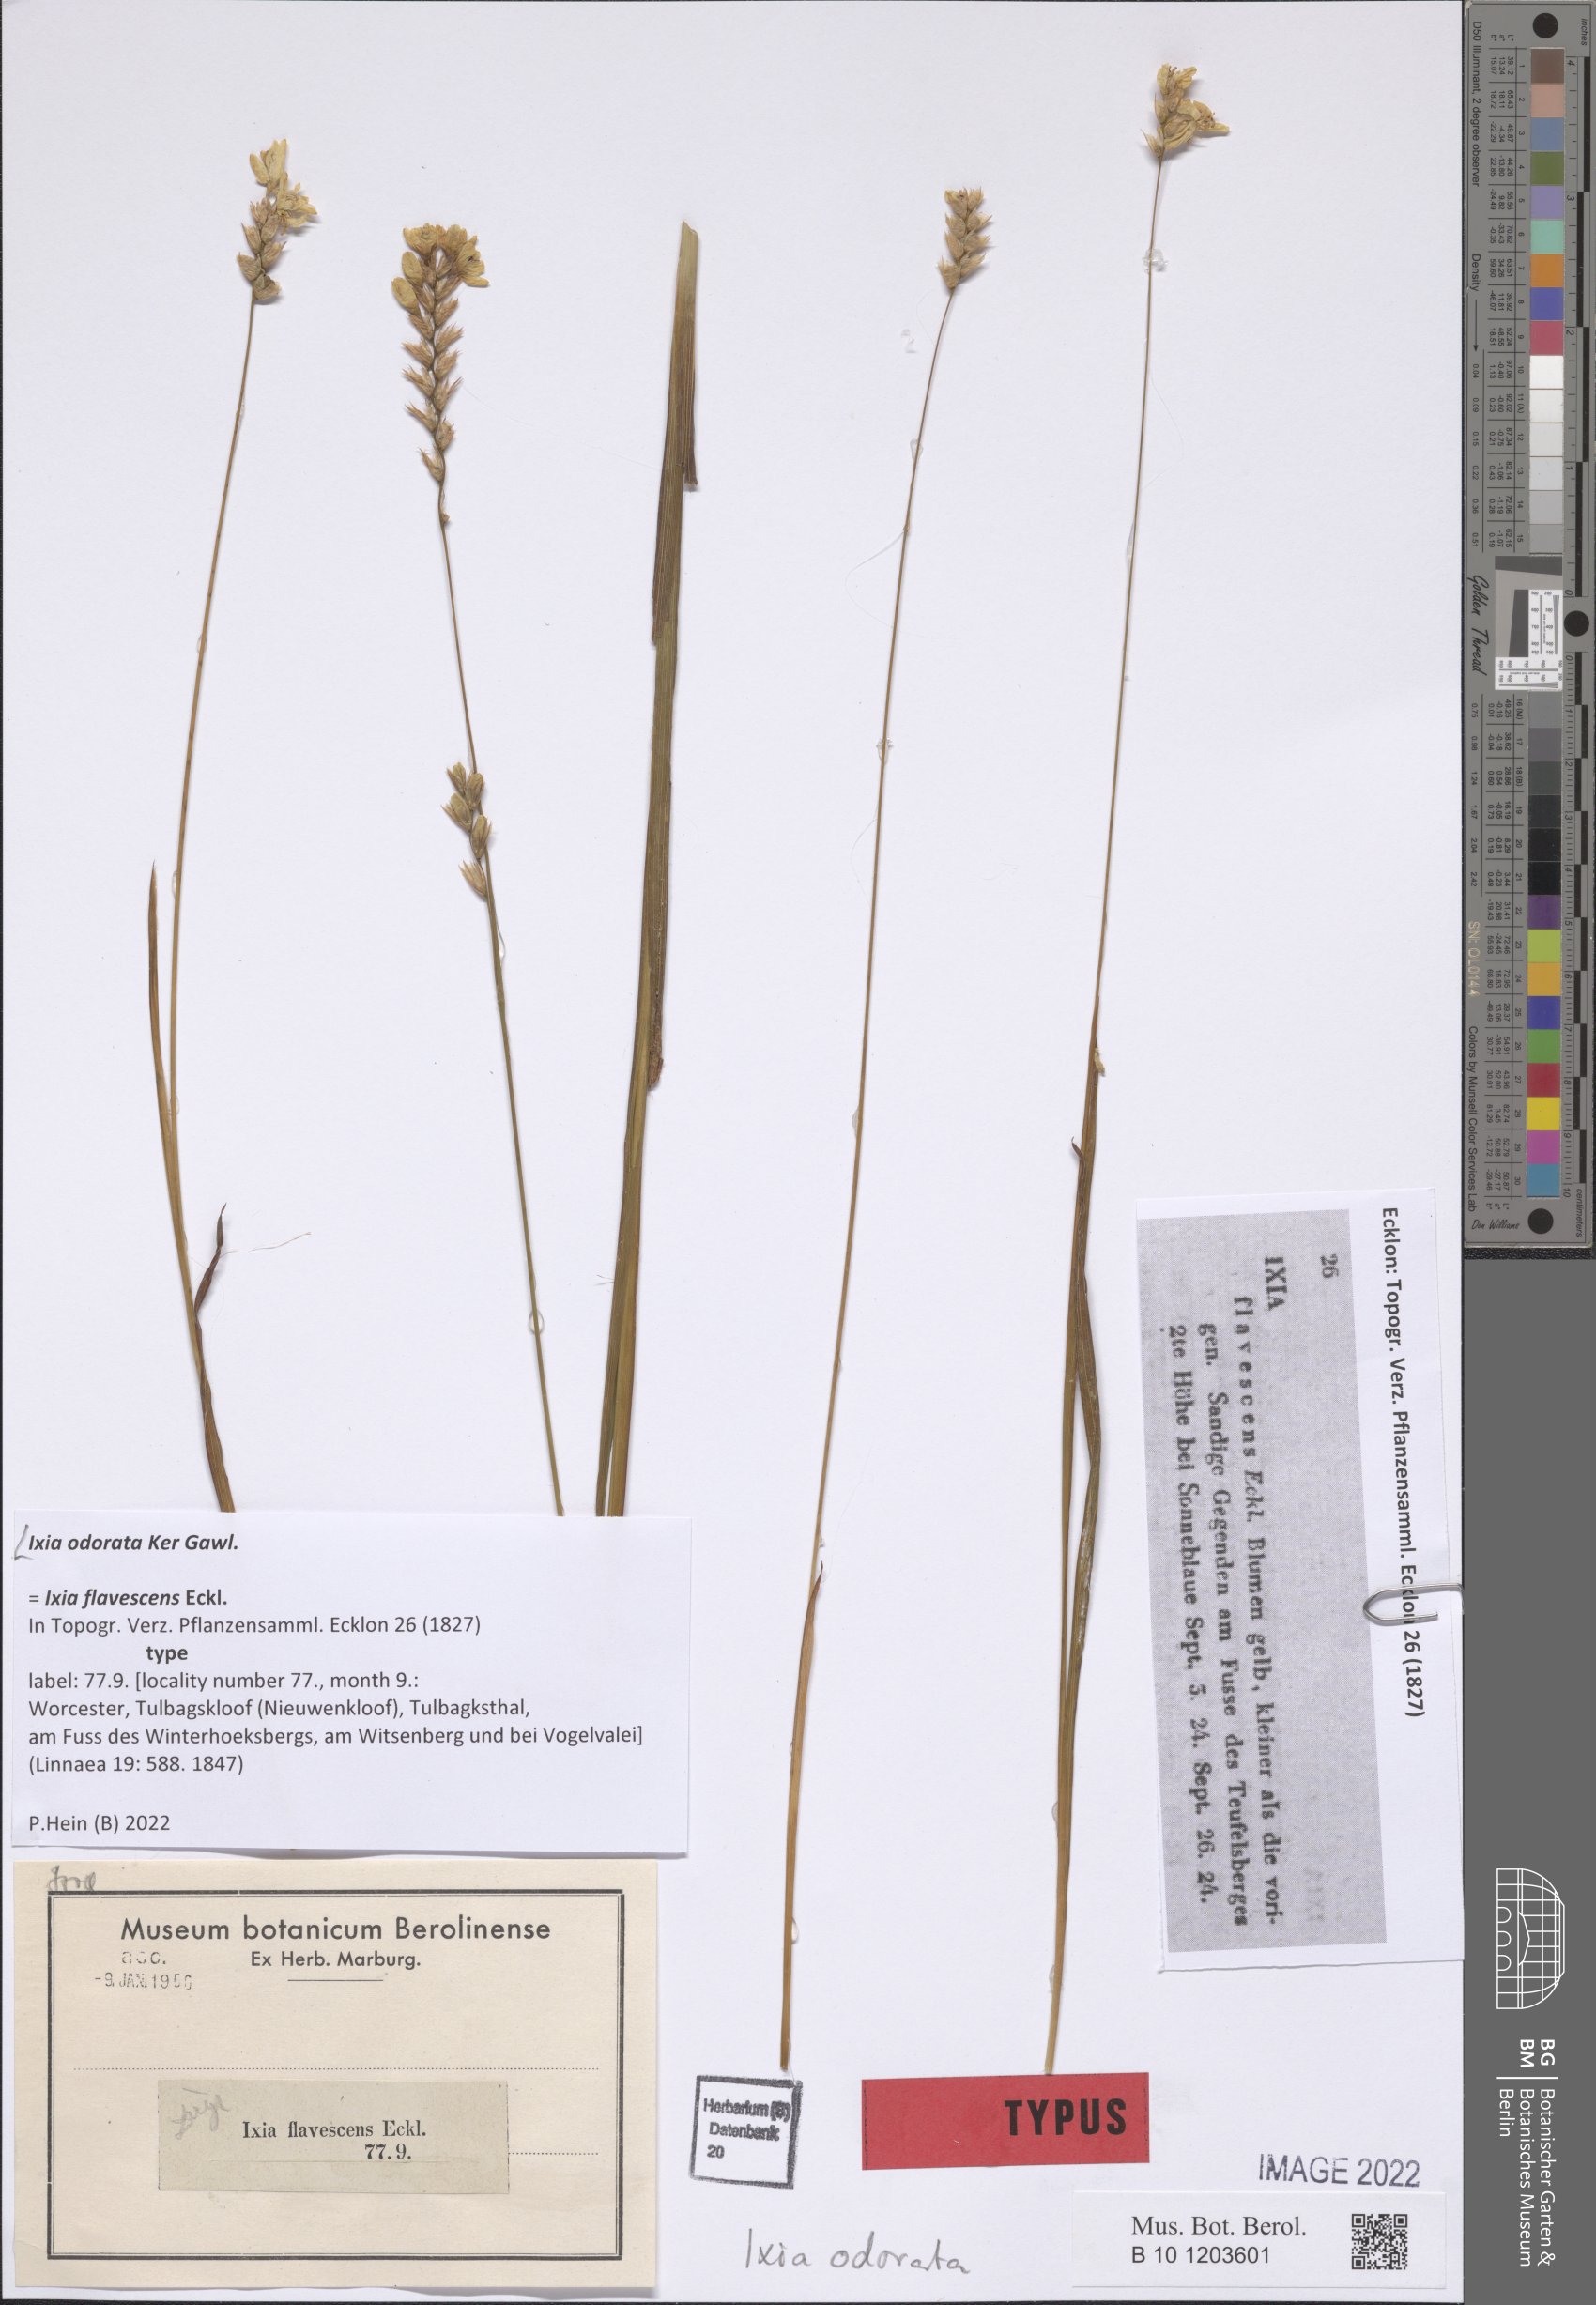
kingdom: Plantae
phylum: Tracheophyta
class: Liliopsida
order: Asparagales
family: Iridaceae
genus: Ixia
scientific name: Ixia odorata
